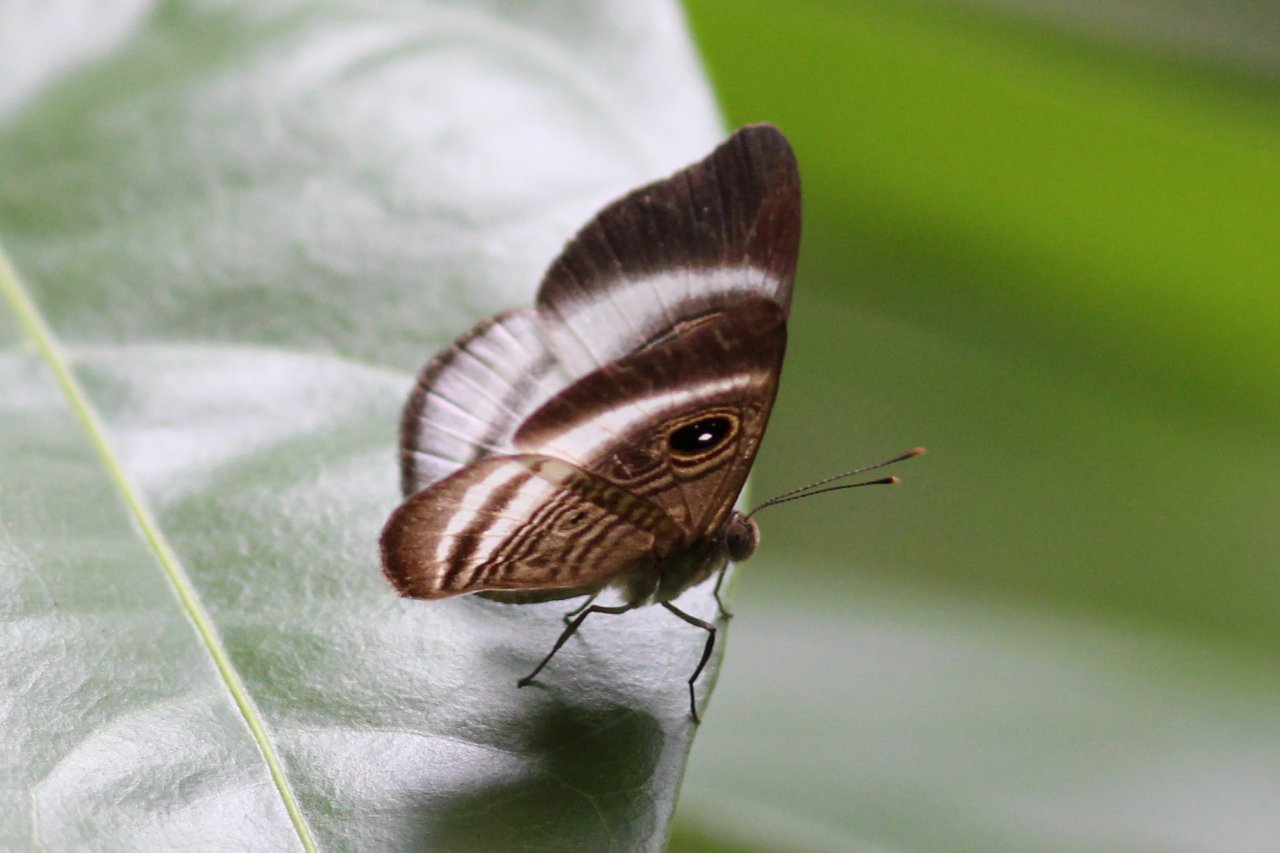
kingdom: Animalia
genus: Mesosemia
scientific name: Mesosemia zonalis
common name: Whitened Eyed-Metalmark
